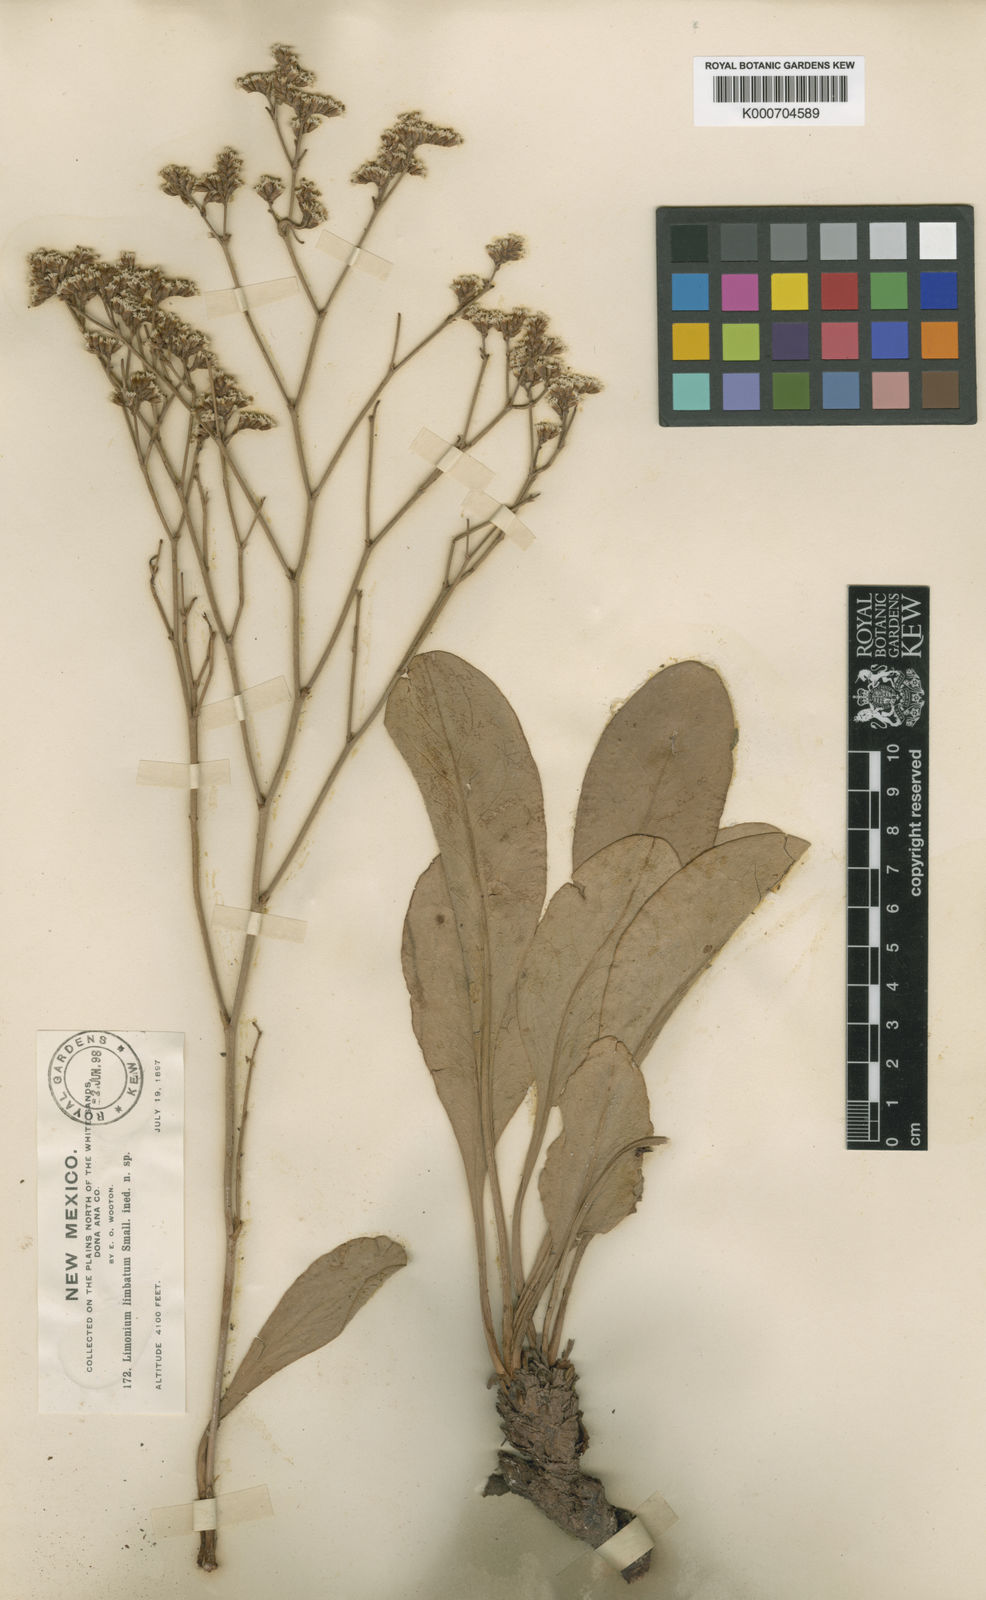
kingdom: Plantae
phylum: Tracheophyta
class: Magnoliopsida
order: Caryophyllales
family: Plumbaginaceae
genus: Limonium
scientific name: Limonium limbatum
